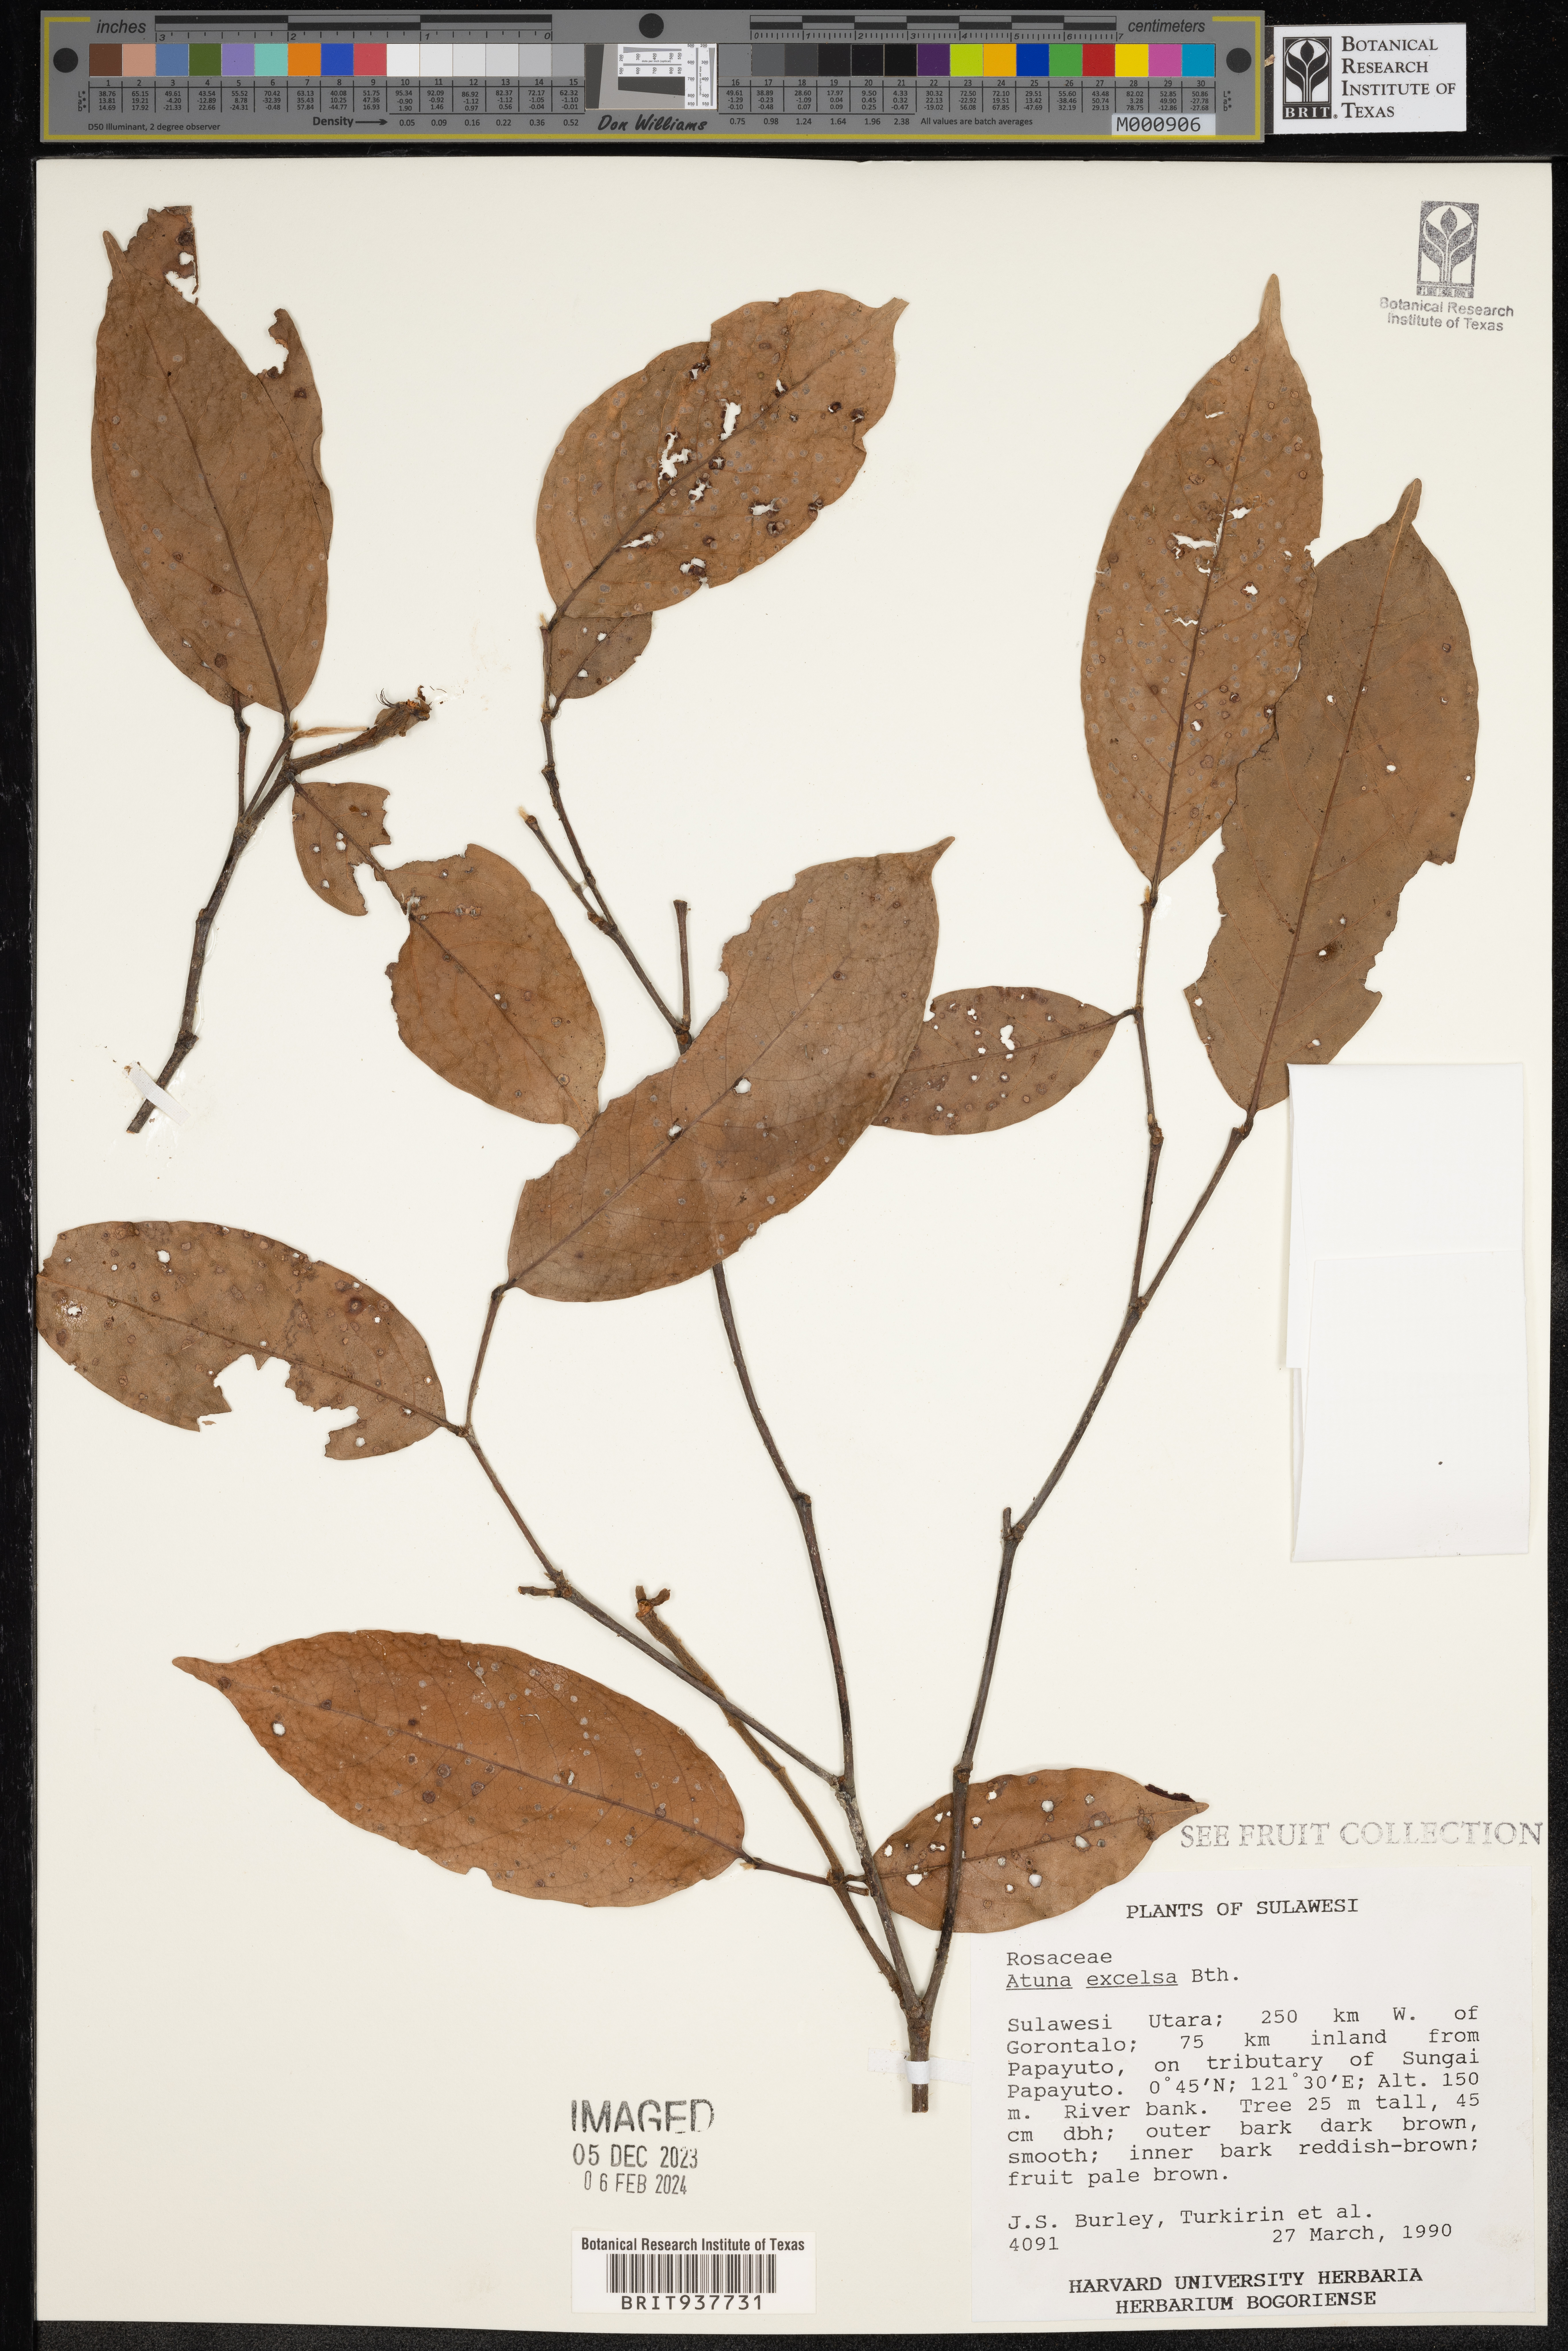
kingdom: Plantae
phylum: Tracheophyta
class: Magnoliopsida
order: Malpighiales
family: Chrysobalanaceae
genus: Atuna
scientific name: Atuna
